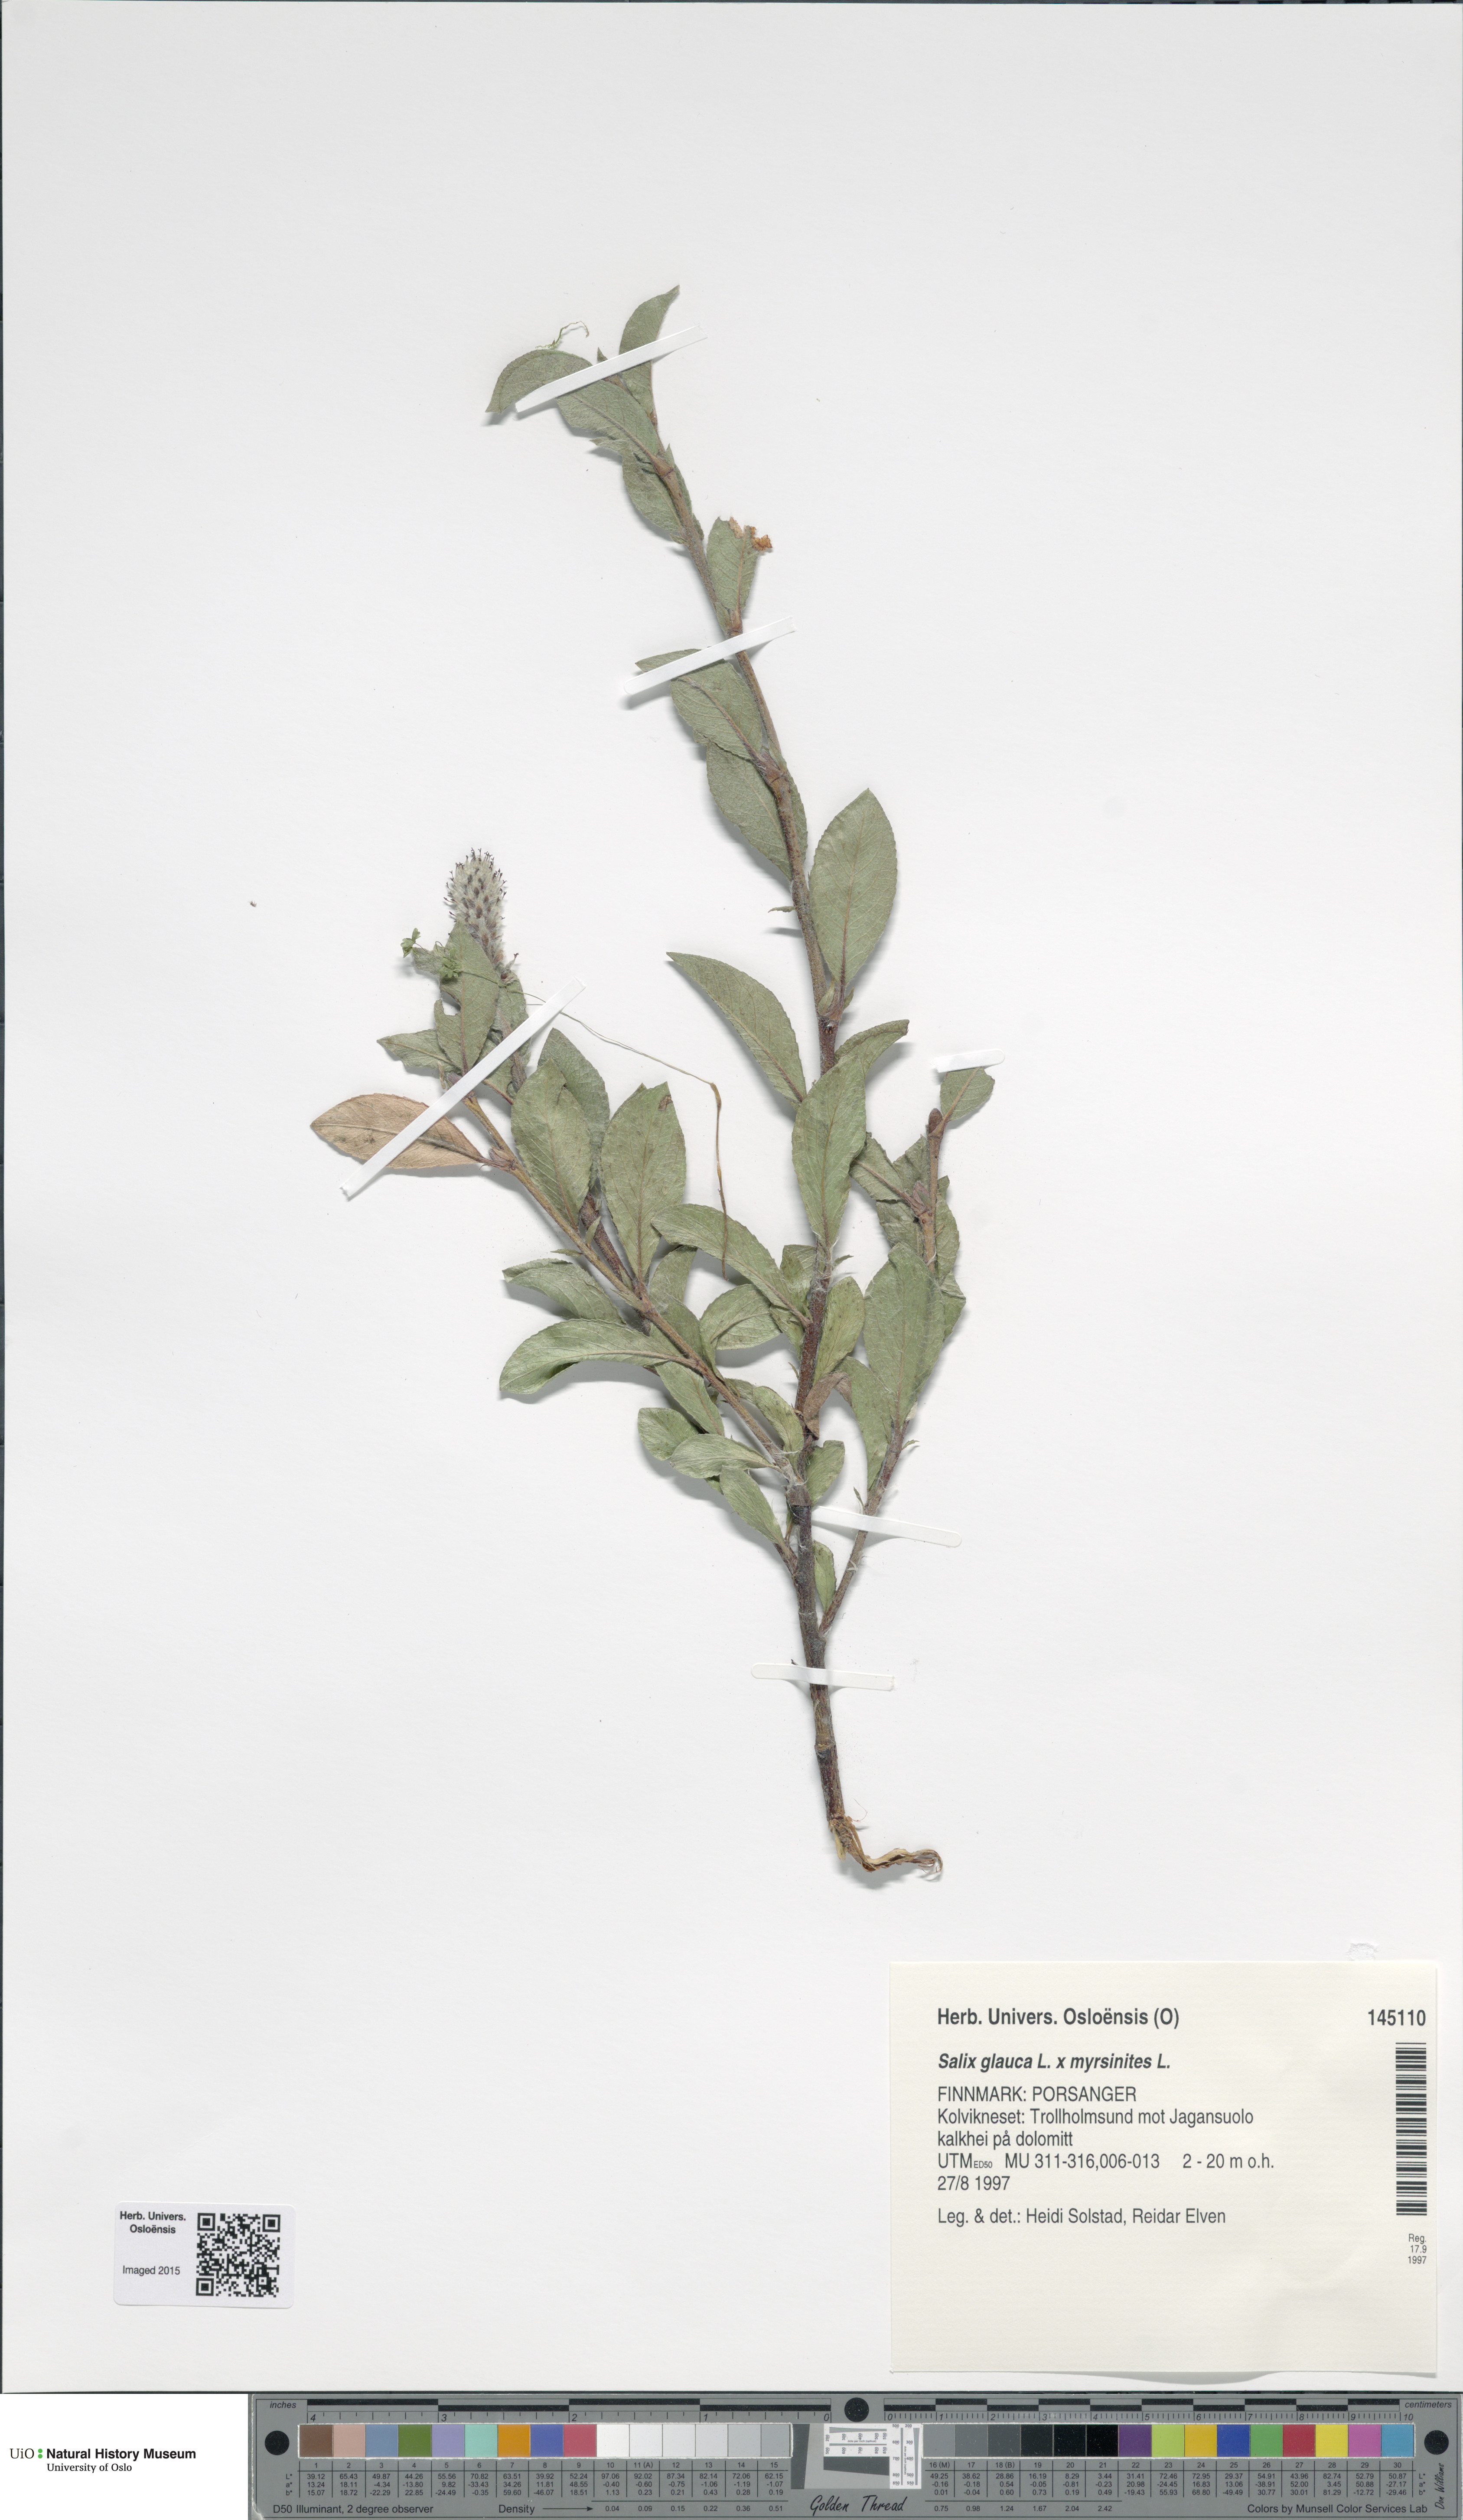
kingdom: Plantae
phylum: Tracheophyta
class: Magnoliopsida
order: Malpighiales
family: Salicaceae
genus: Salix
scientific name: Salix
